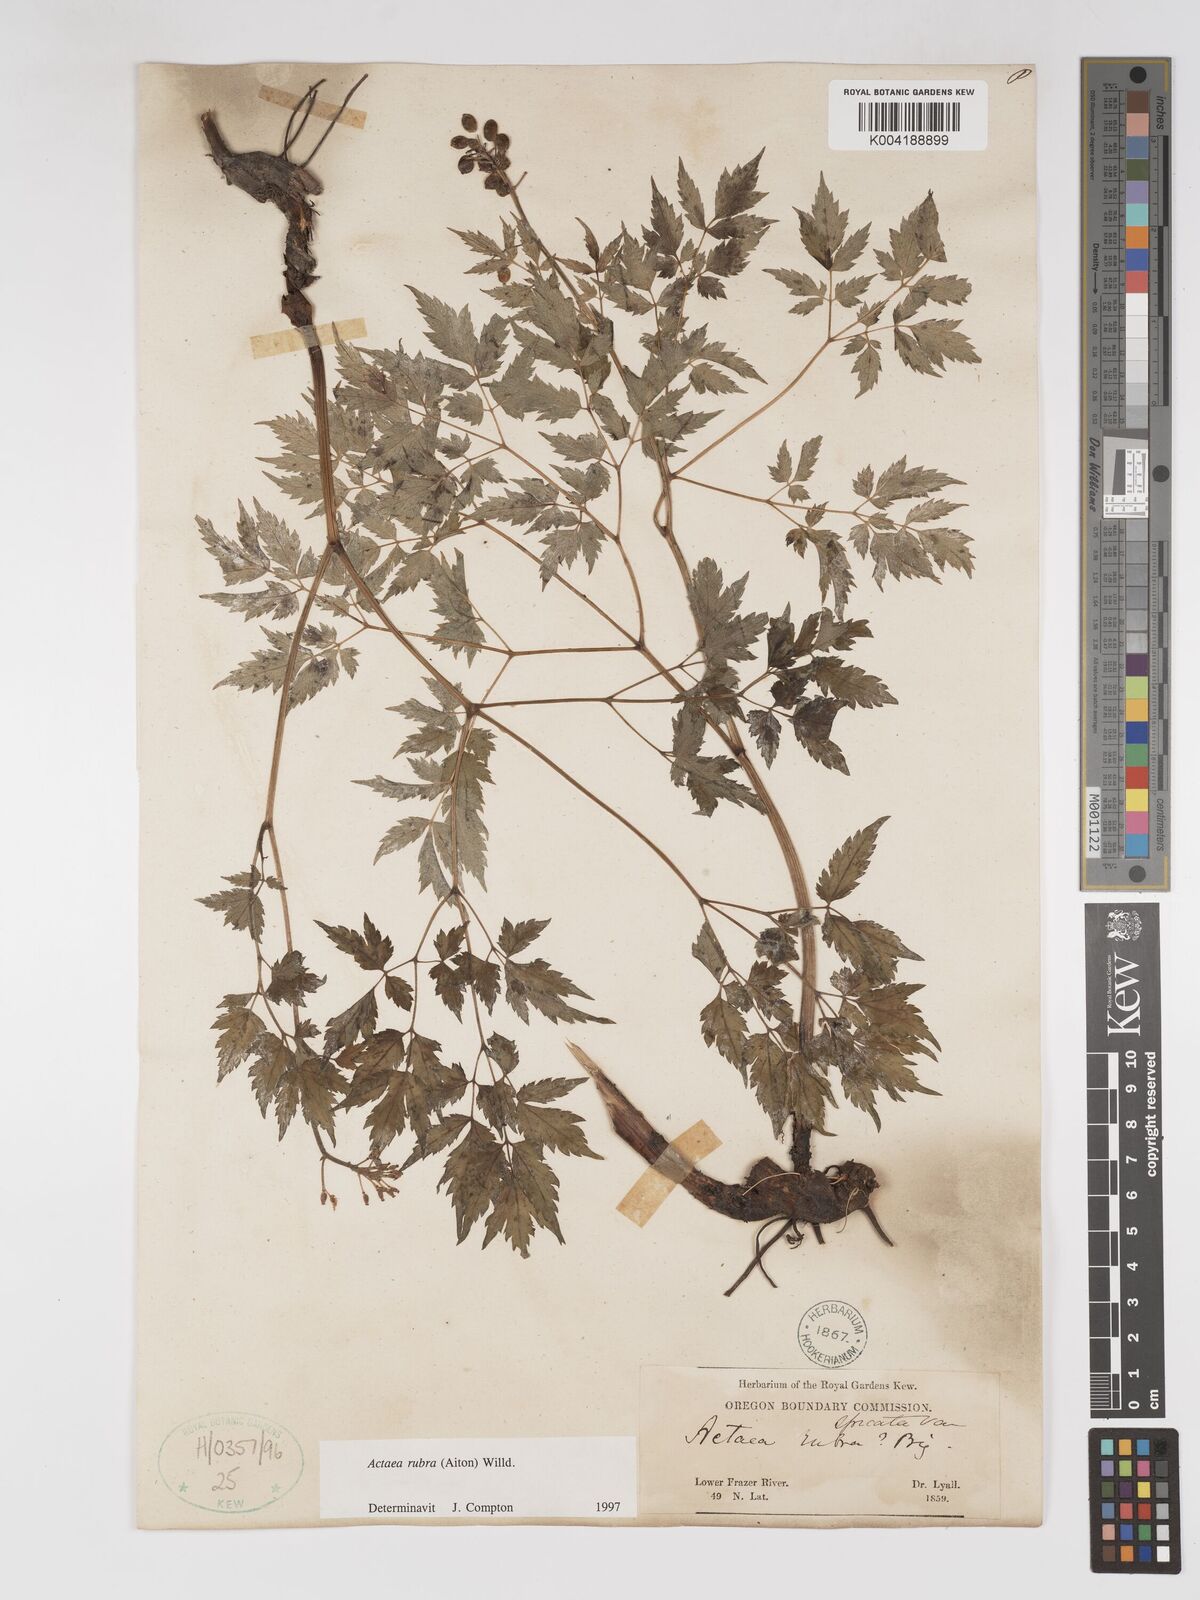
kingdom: Plantae
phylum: Tracheophyta
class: Magnoliopsida
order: Ranunculales
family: Ranunculaceae
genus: Actaea
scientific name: Actaea rubra
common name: Red baneberry
